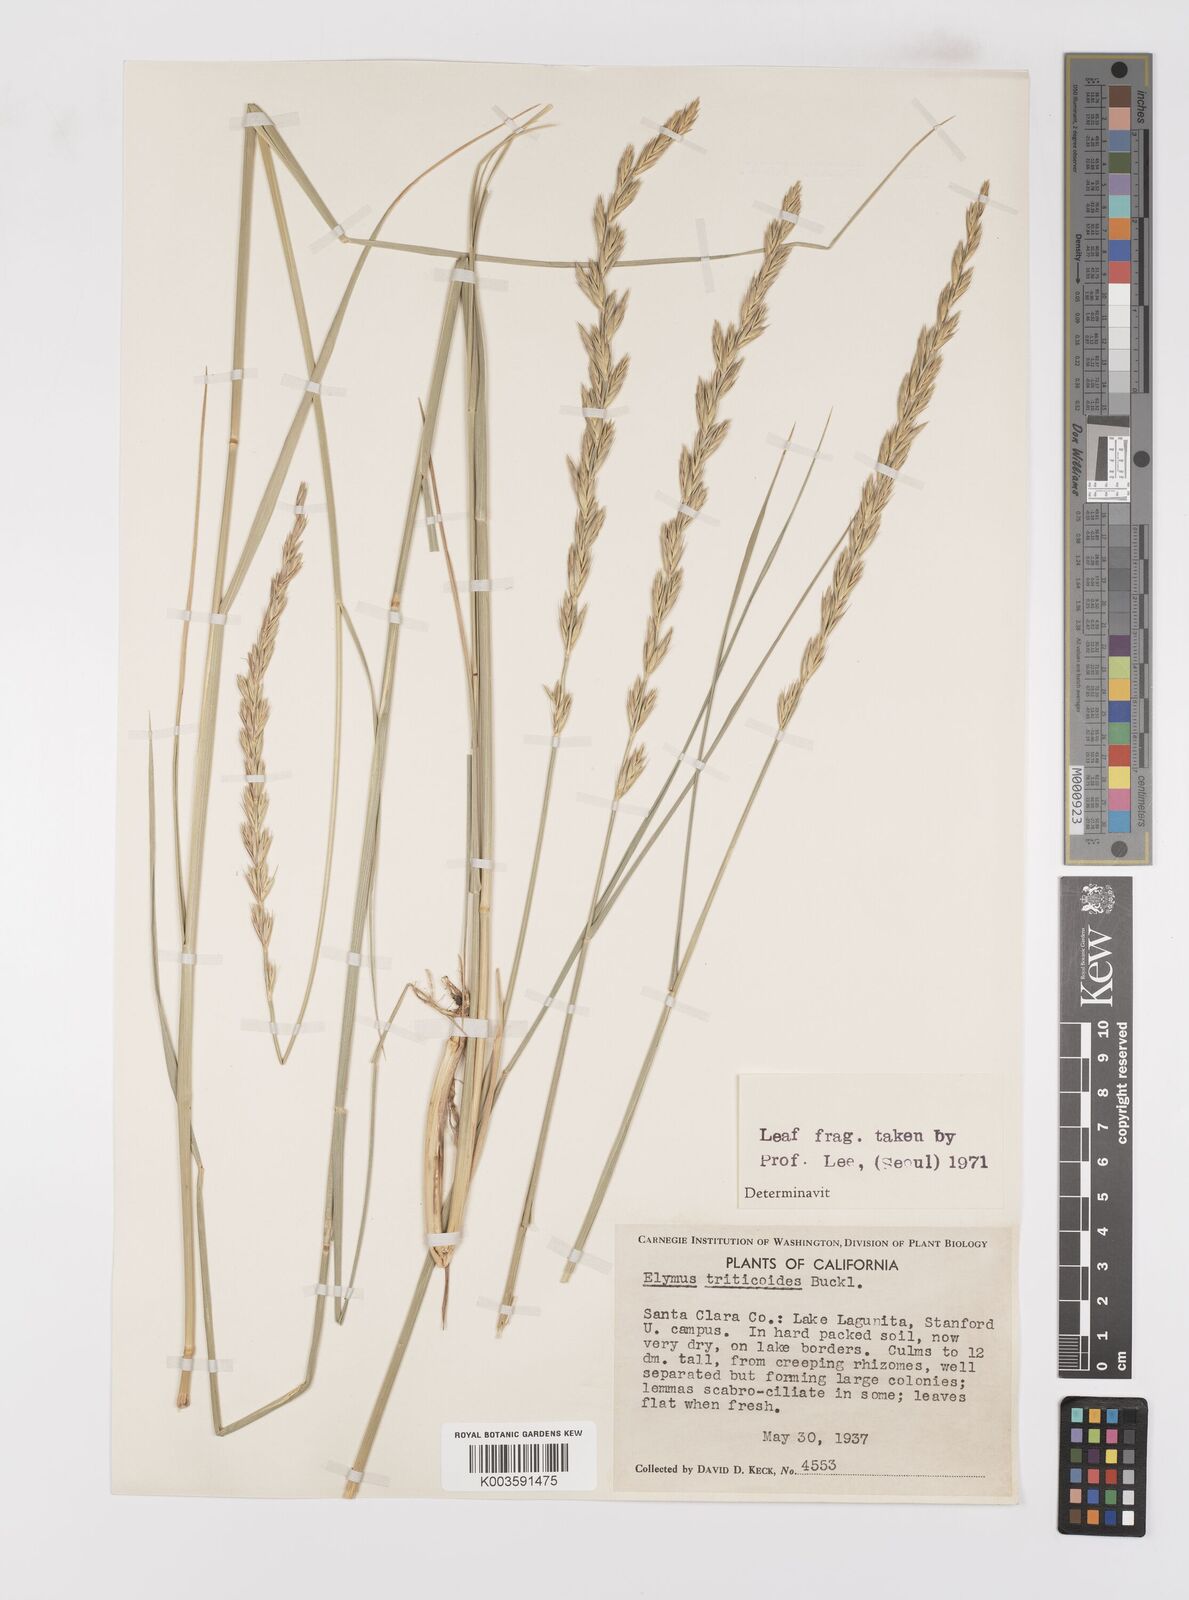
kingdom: Plantae
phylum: Tracheophyta
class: Liliopsida
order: Poales
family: Poaceae
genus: Leymus
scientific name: Leymus triticoides
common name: Beardless wild rye
